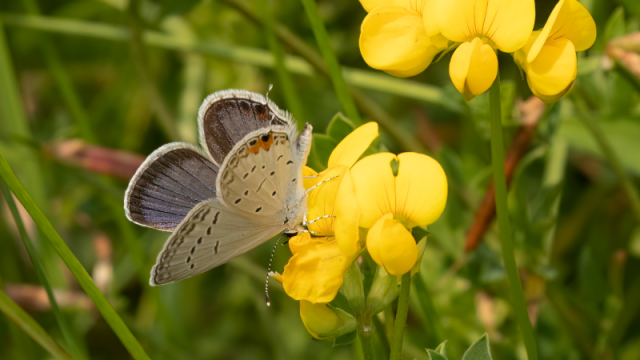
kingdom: Animalia
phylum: Arthropoda
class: Insecta
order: Lepidoptera
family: Lycaenidae
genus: Elkalyce
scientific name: Elkalyce comyntas
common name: Eastern Tailed-Blue
